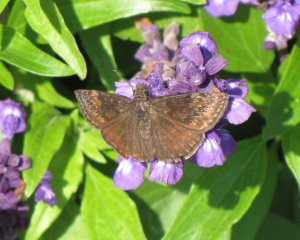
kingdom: Animalia
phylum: Arthropoda
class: Insecta
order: Lepidoptera
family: Hesperiidae
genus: Gesta
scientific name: Gesta
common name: Wild Indigo Duskywing
